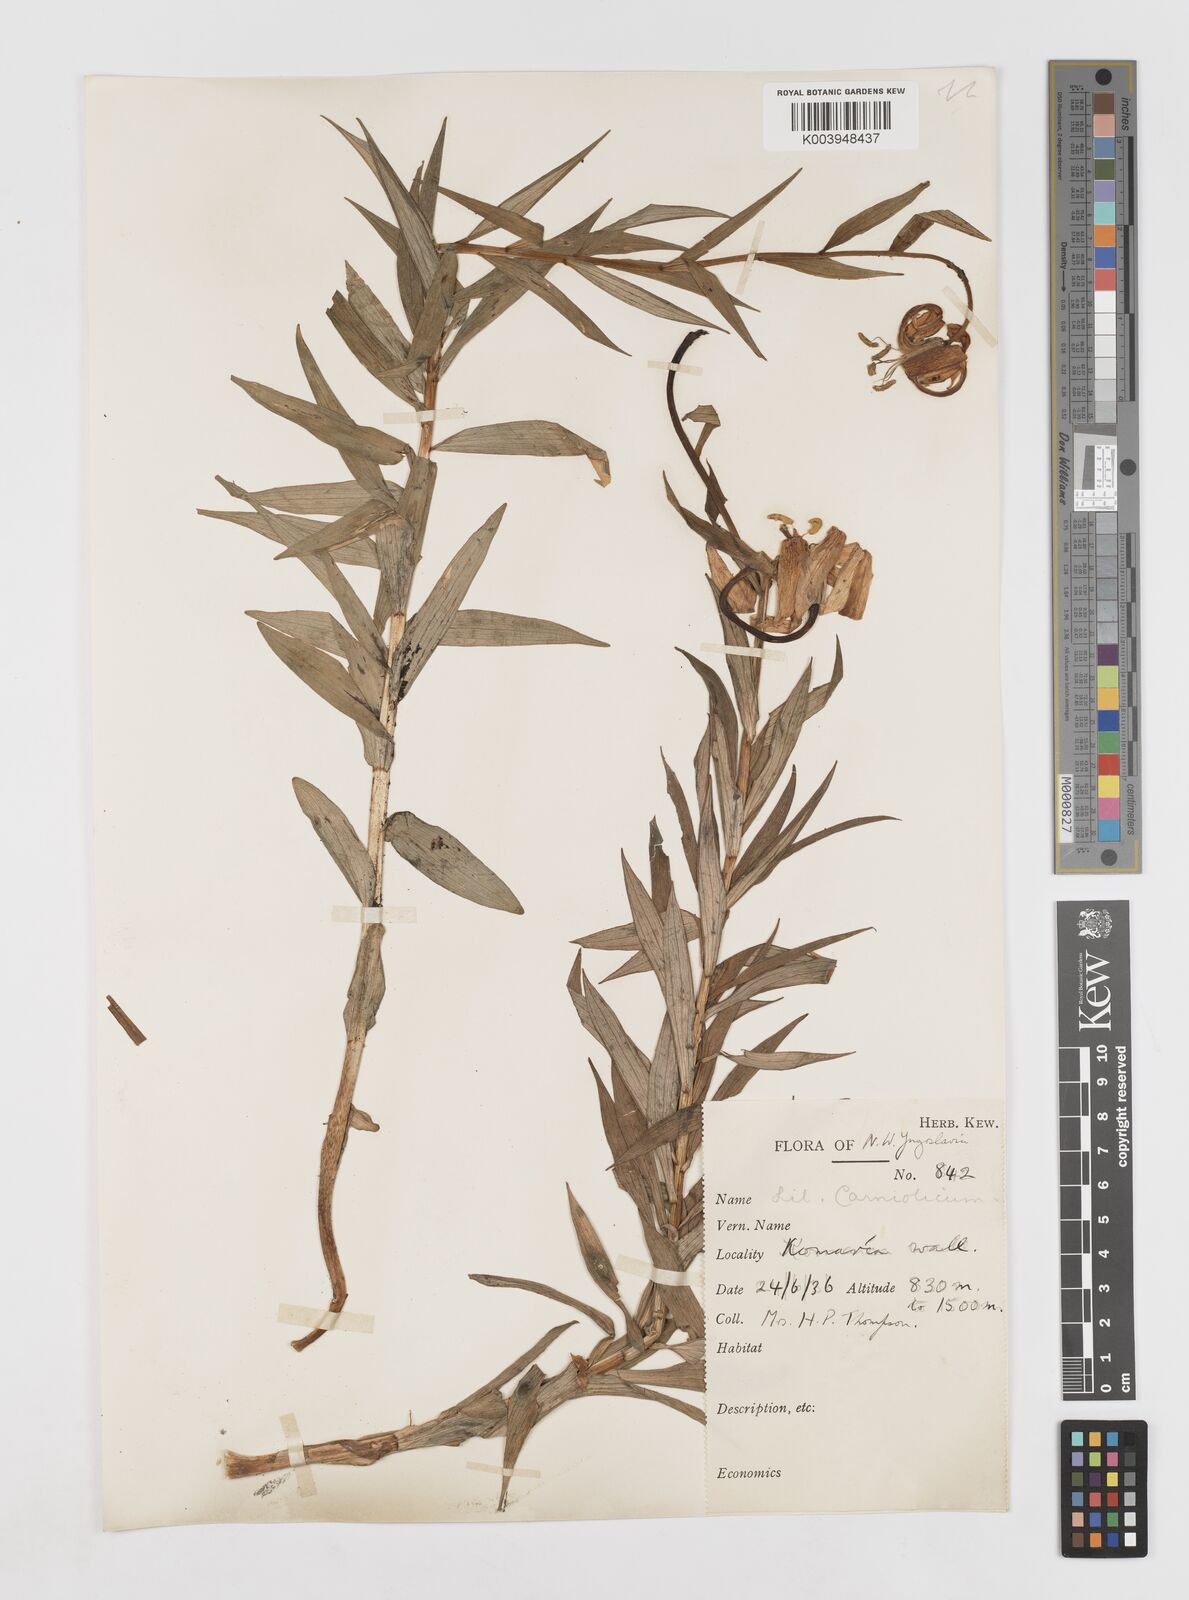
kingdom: Plantae
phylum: Tracheophyta
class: Liliopsida
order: Liliales
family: Liliaceae
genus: Lilium
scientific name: Lilium carniolicum
